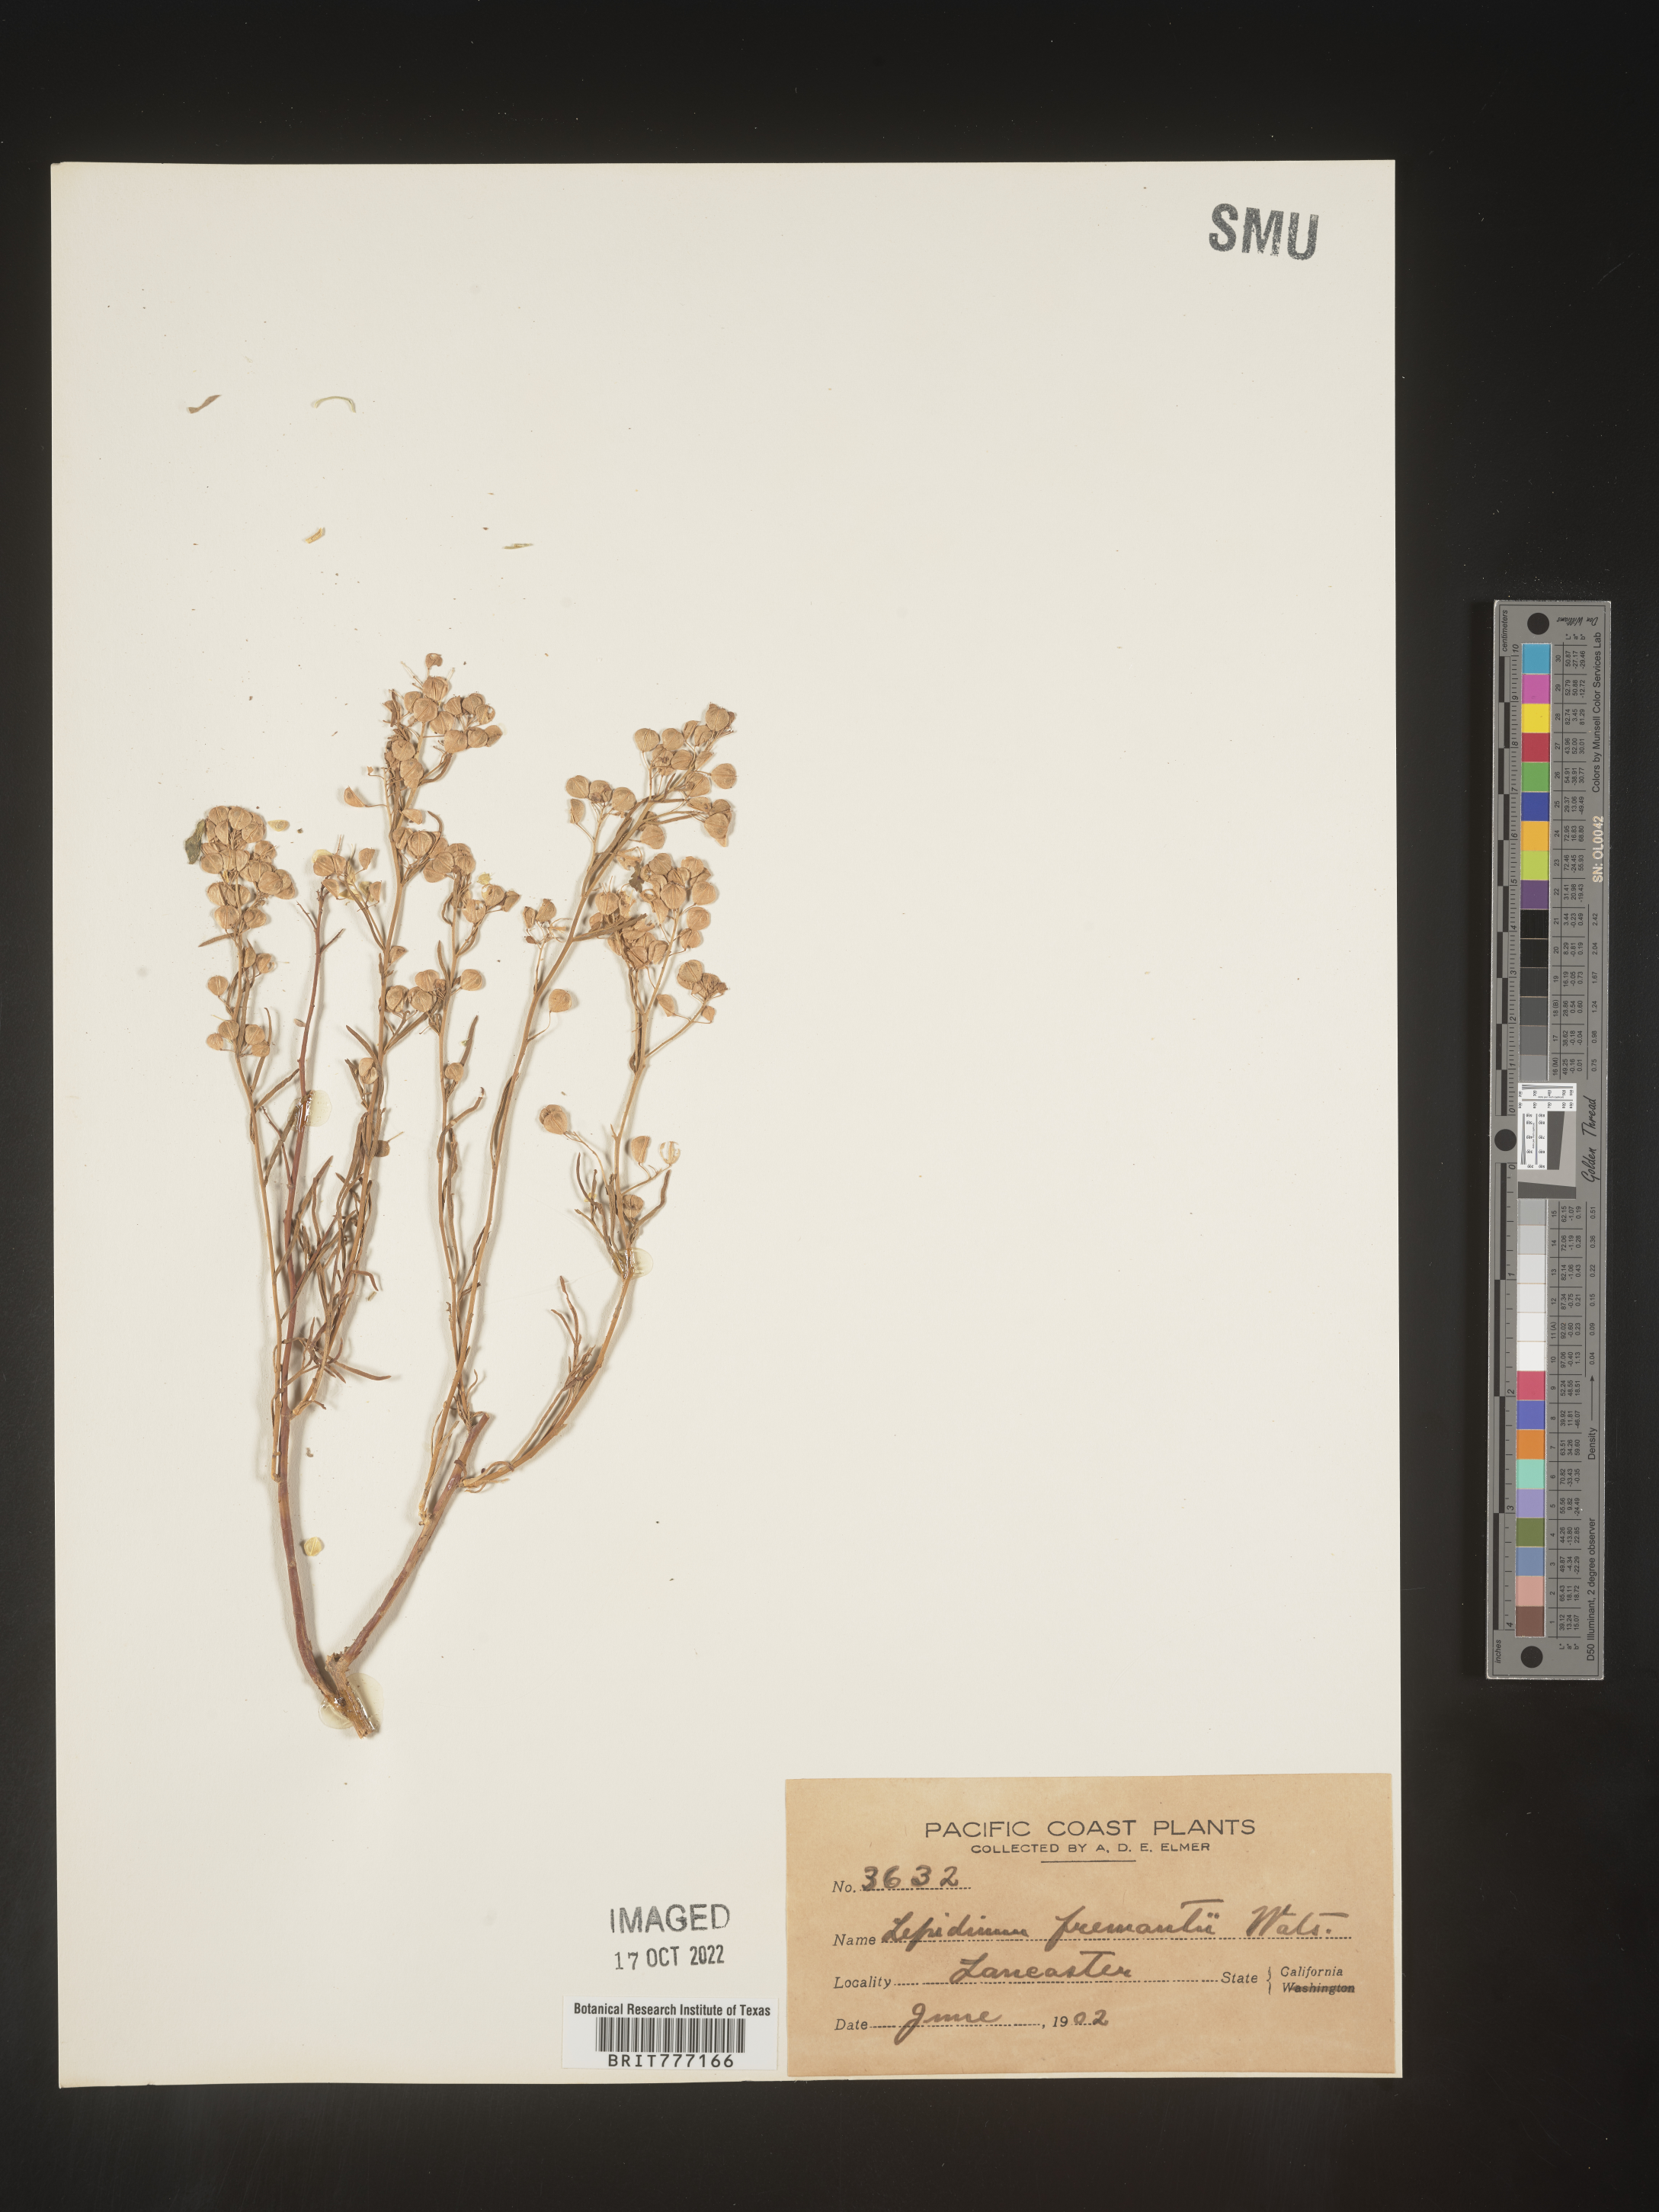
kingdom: Plantae
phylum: Tracheophyta
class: Magnoliopsida
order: Brassicales
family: Brassicaceae
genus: Lepidium
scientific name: Lepidium fremontii
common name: Fremont's pepperwort
